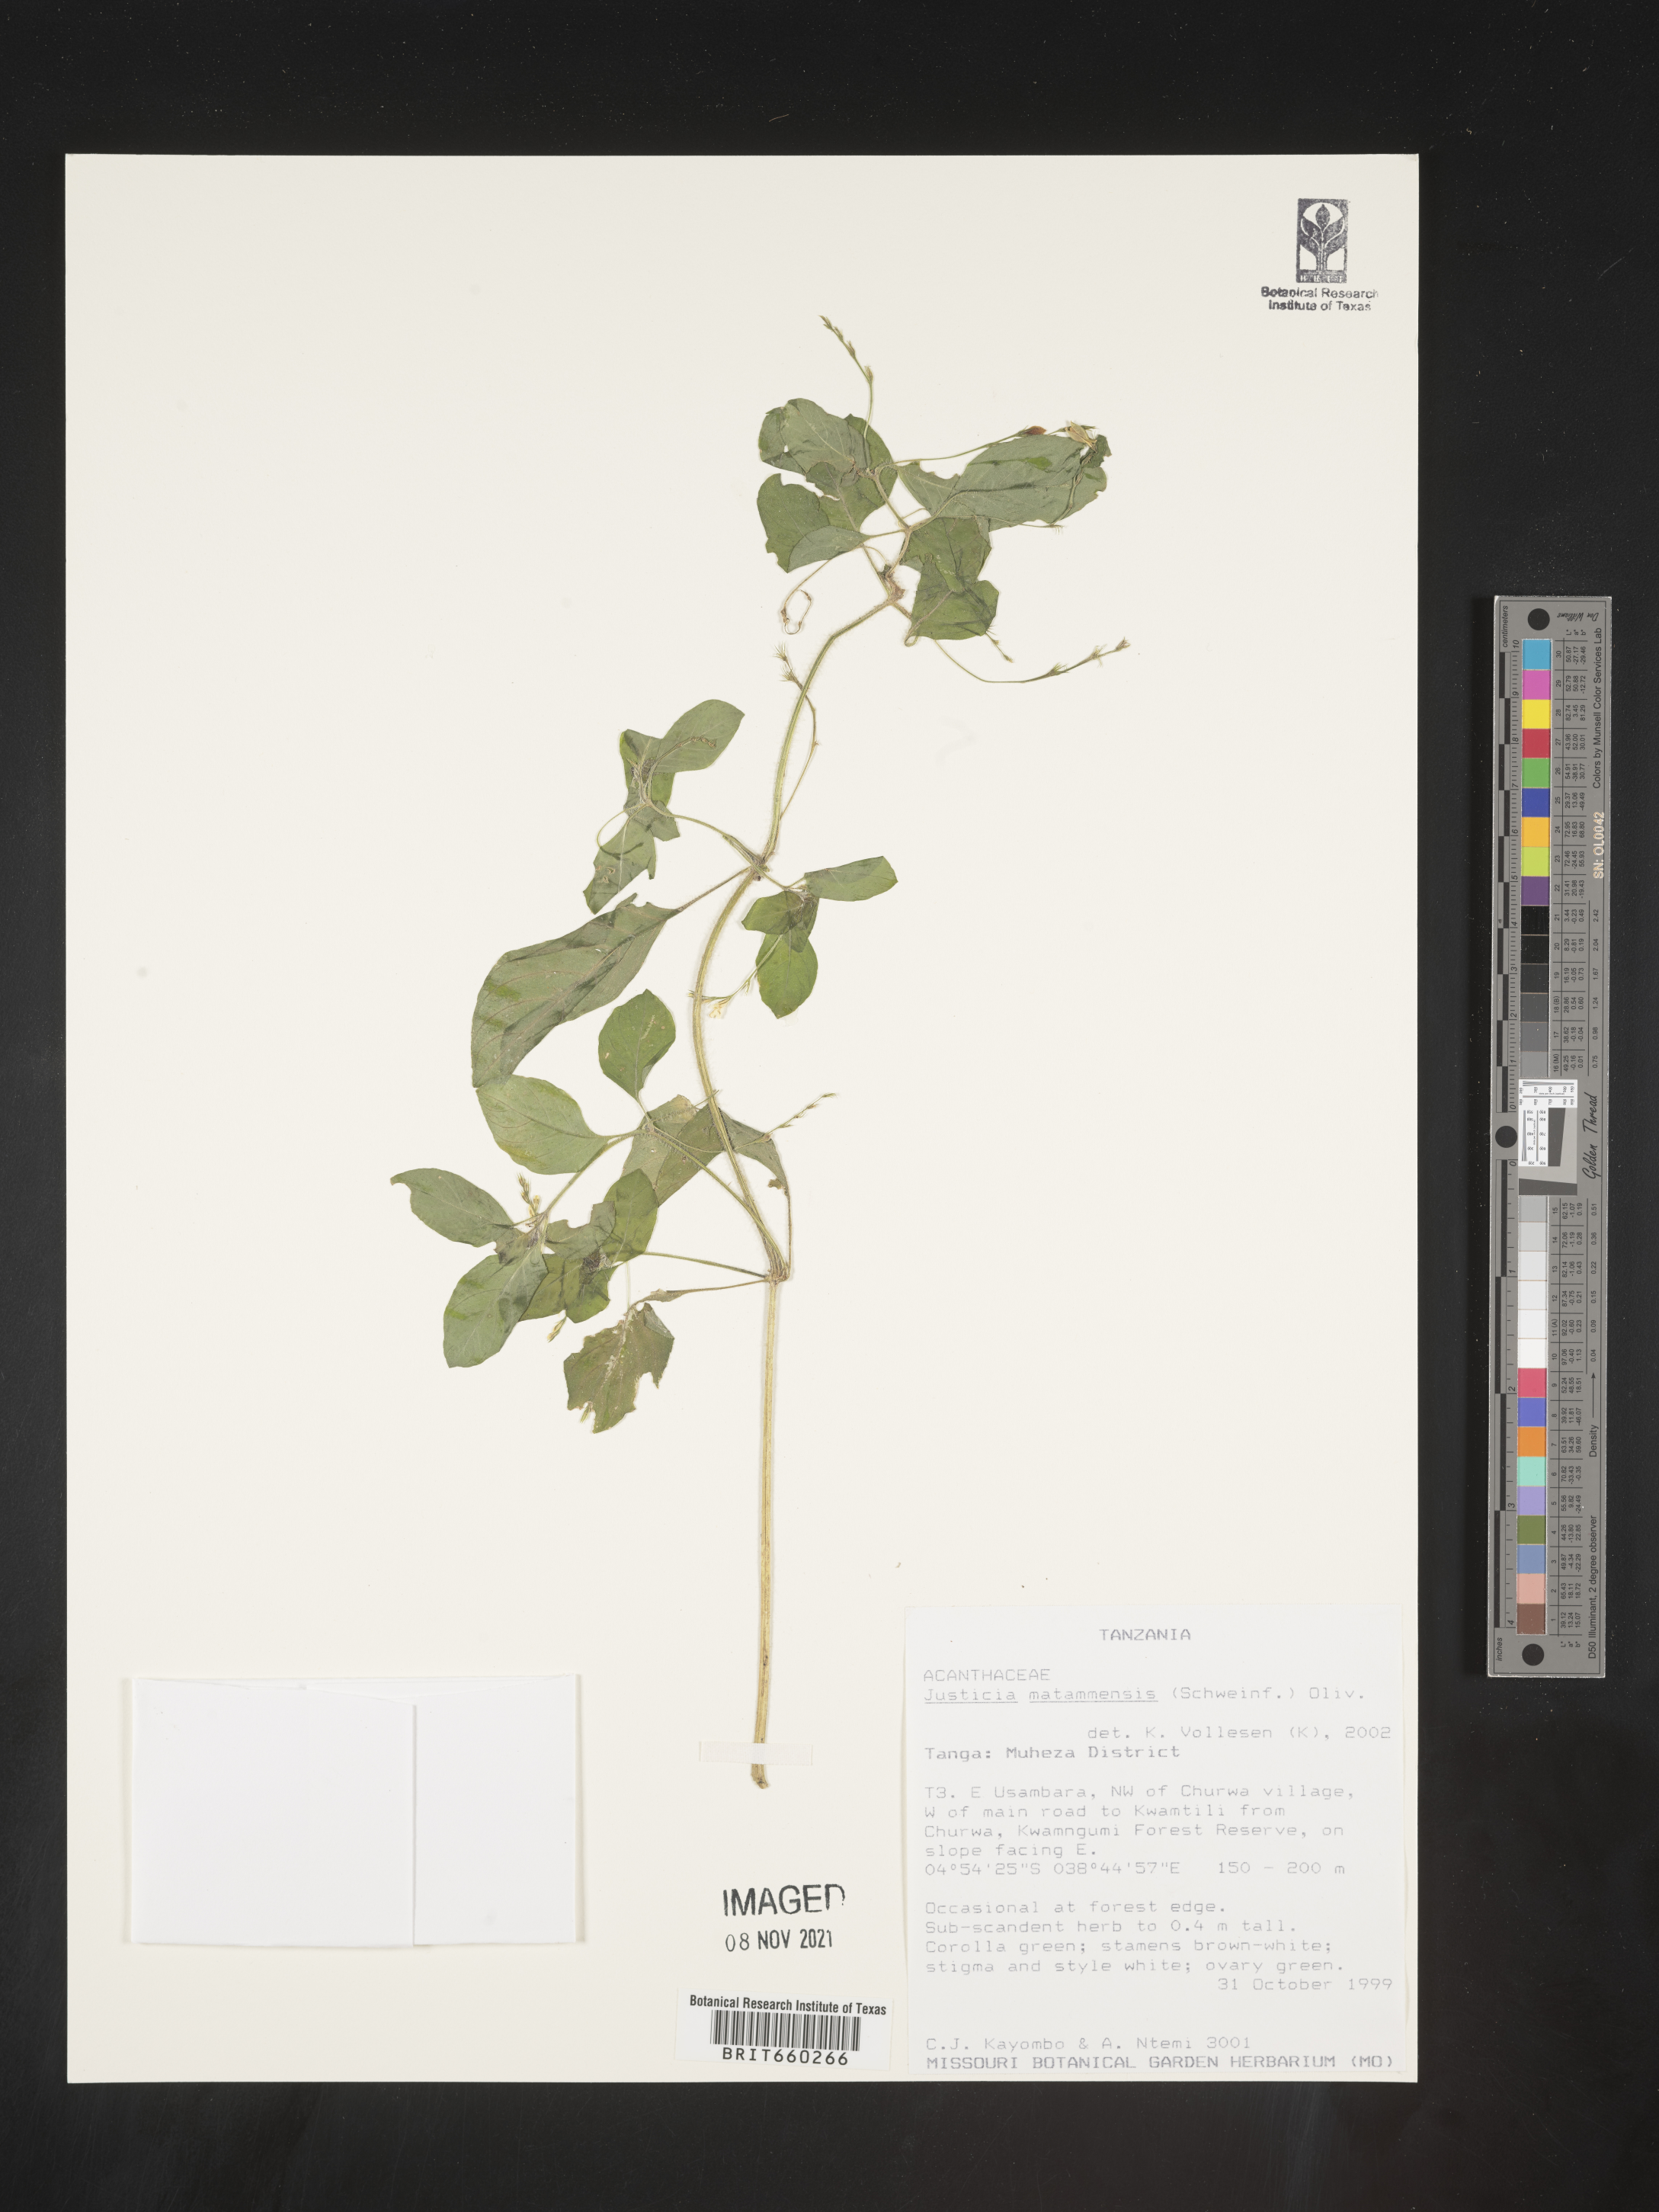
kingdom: Plantae
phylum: Tracheophyta
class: Magnoliopsida
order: Lamiales
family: Acanthaceae
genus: Justicia
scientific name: Justicia
